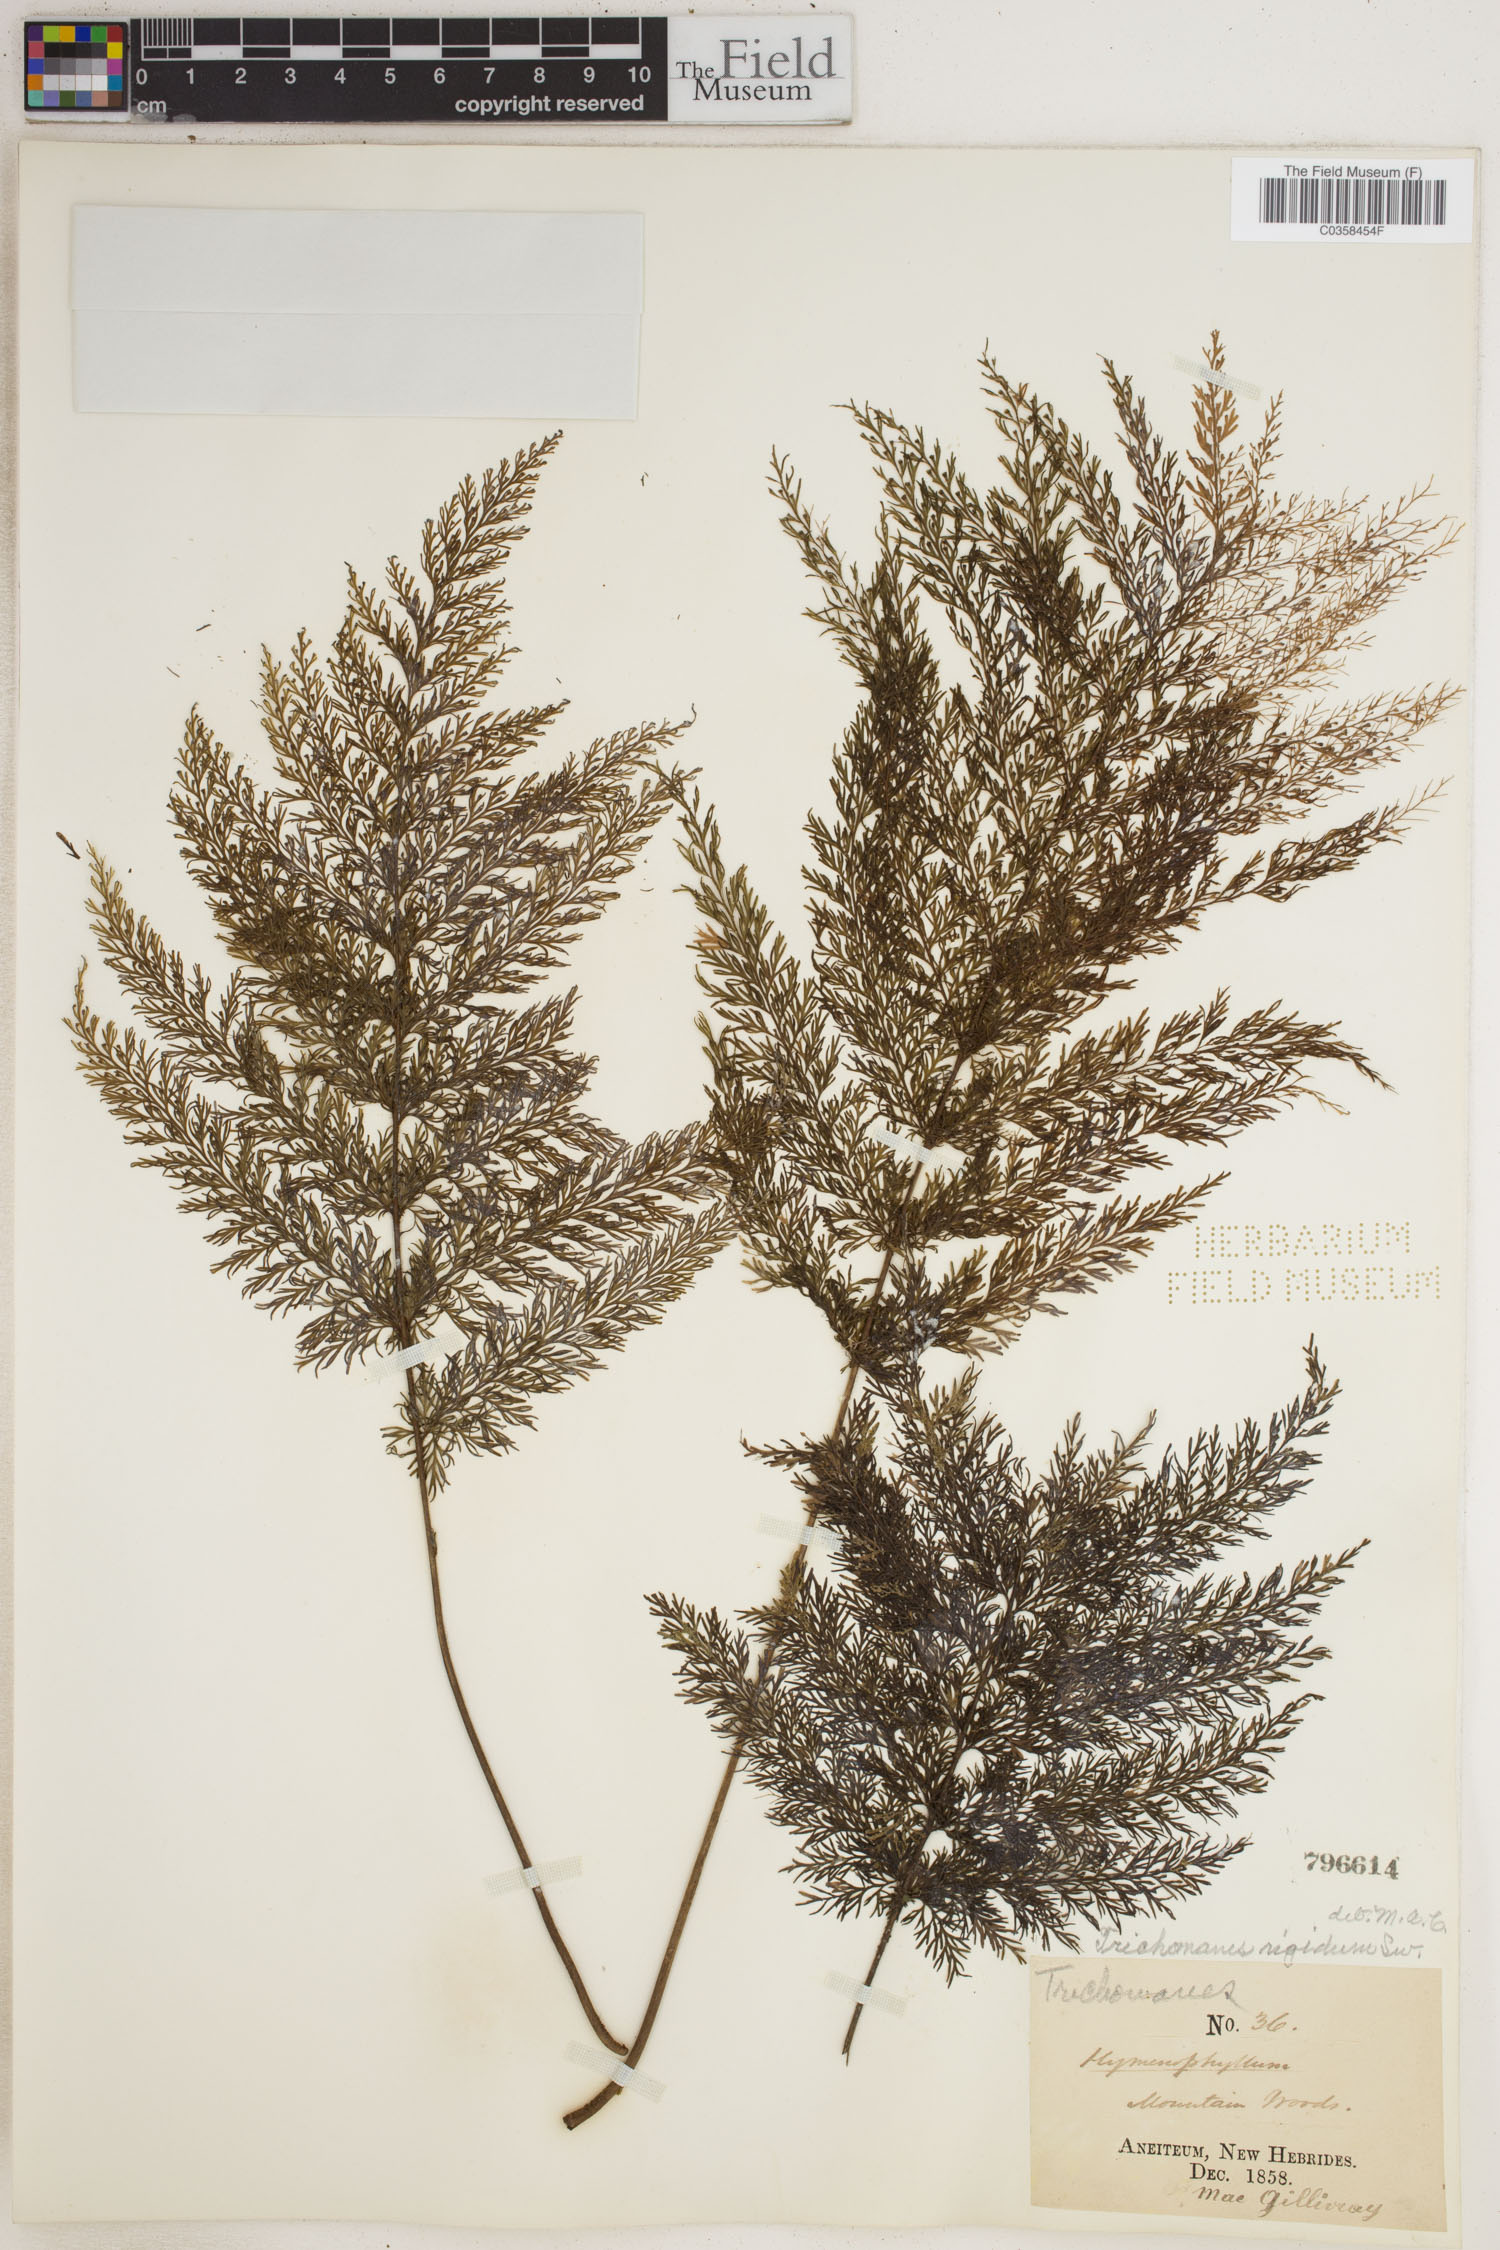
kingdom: Plantae
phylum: Tracheophyta
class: Polypodiopsida
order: Hymenophyllales
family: Hymenophyllaceae
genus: Abrodictyum
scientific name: Abrodictyum rigidum
